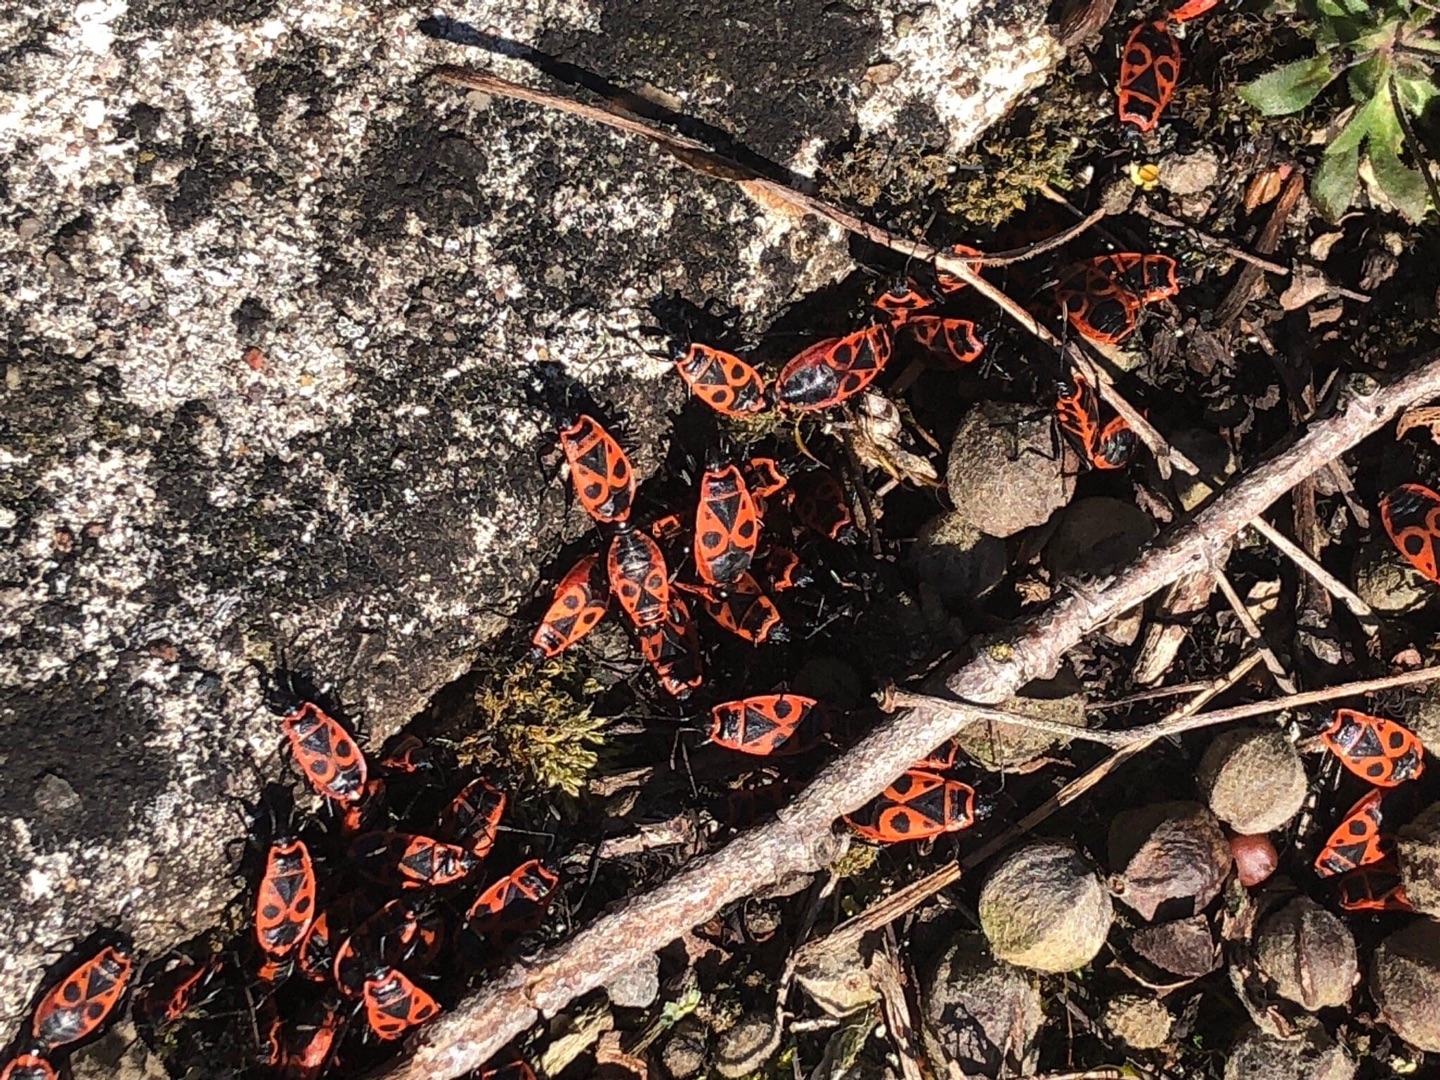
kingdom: Animalia
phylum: Arthropoda
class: Insecta
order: Hemiptera
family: Pyrrhocoridae
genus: Pyrrhocoris
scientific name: Pyrrhocoris apterus
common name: Ildtæge
